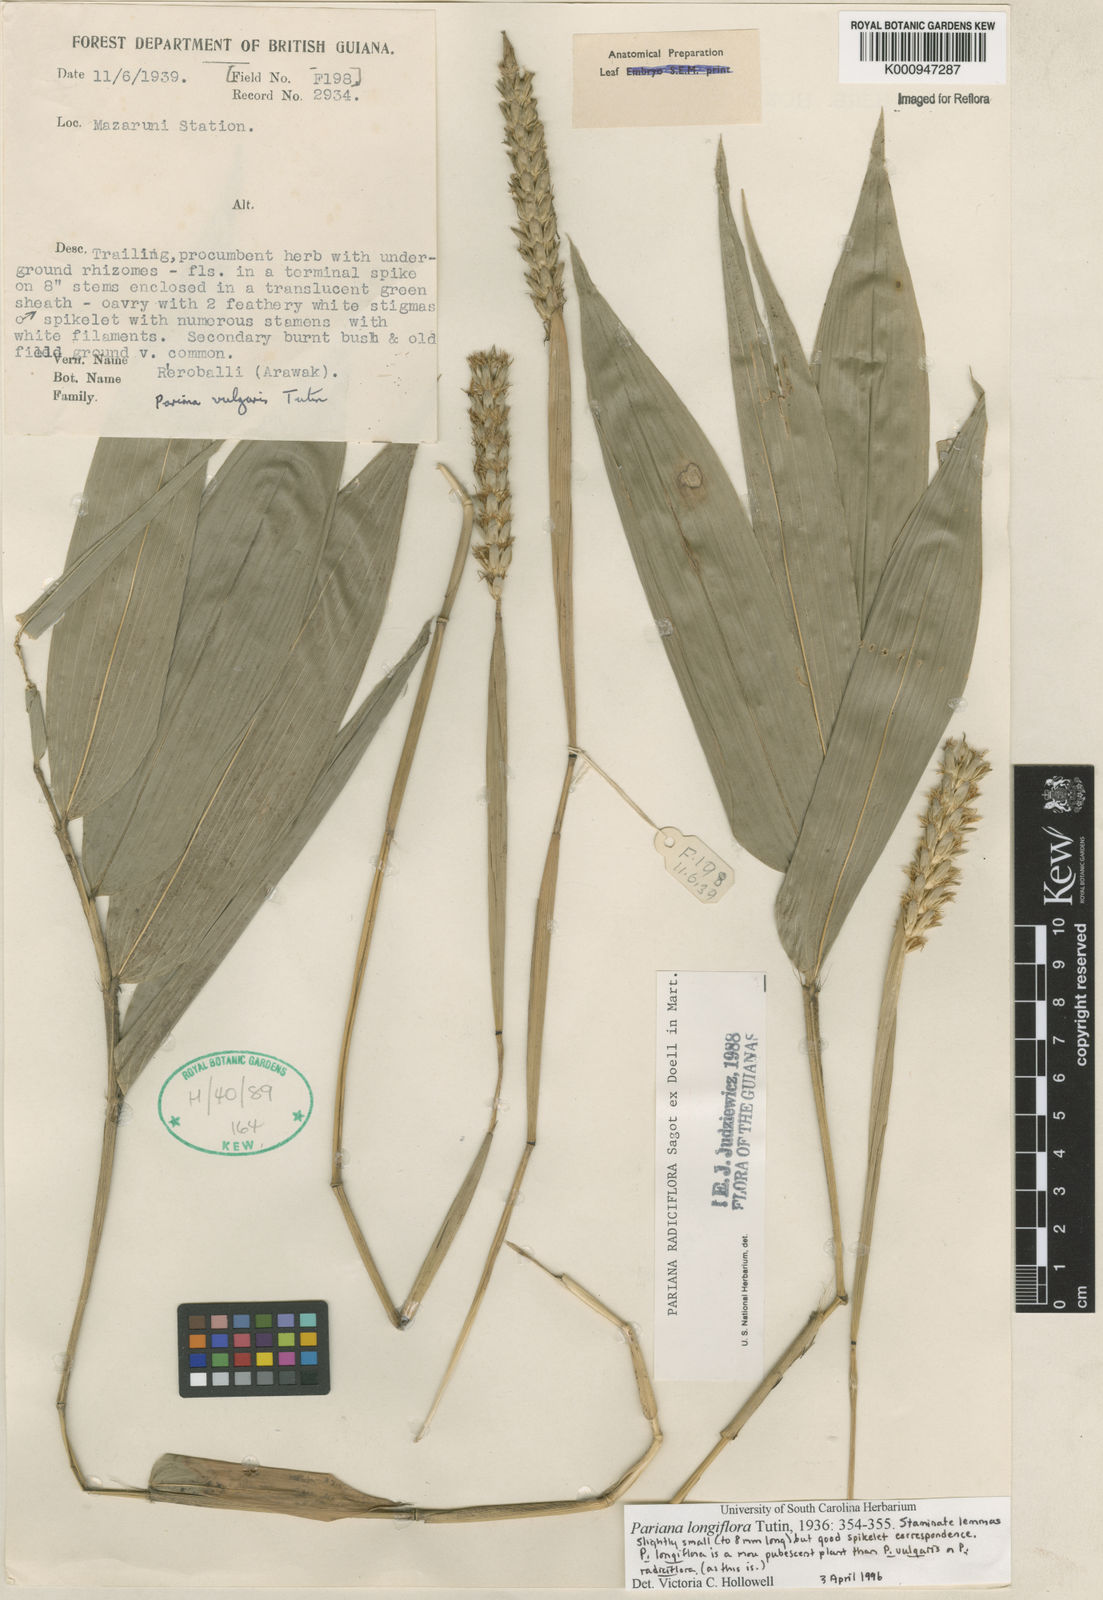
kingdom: Plantae
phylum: Tracheophyta
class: Liliopsida
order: Poales
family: Poaceae
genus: Pariana
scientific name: Pariana
